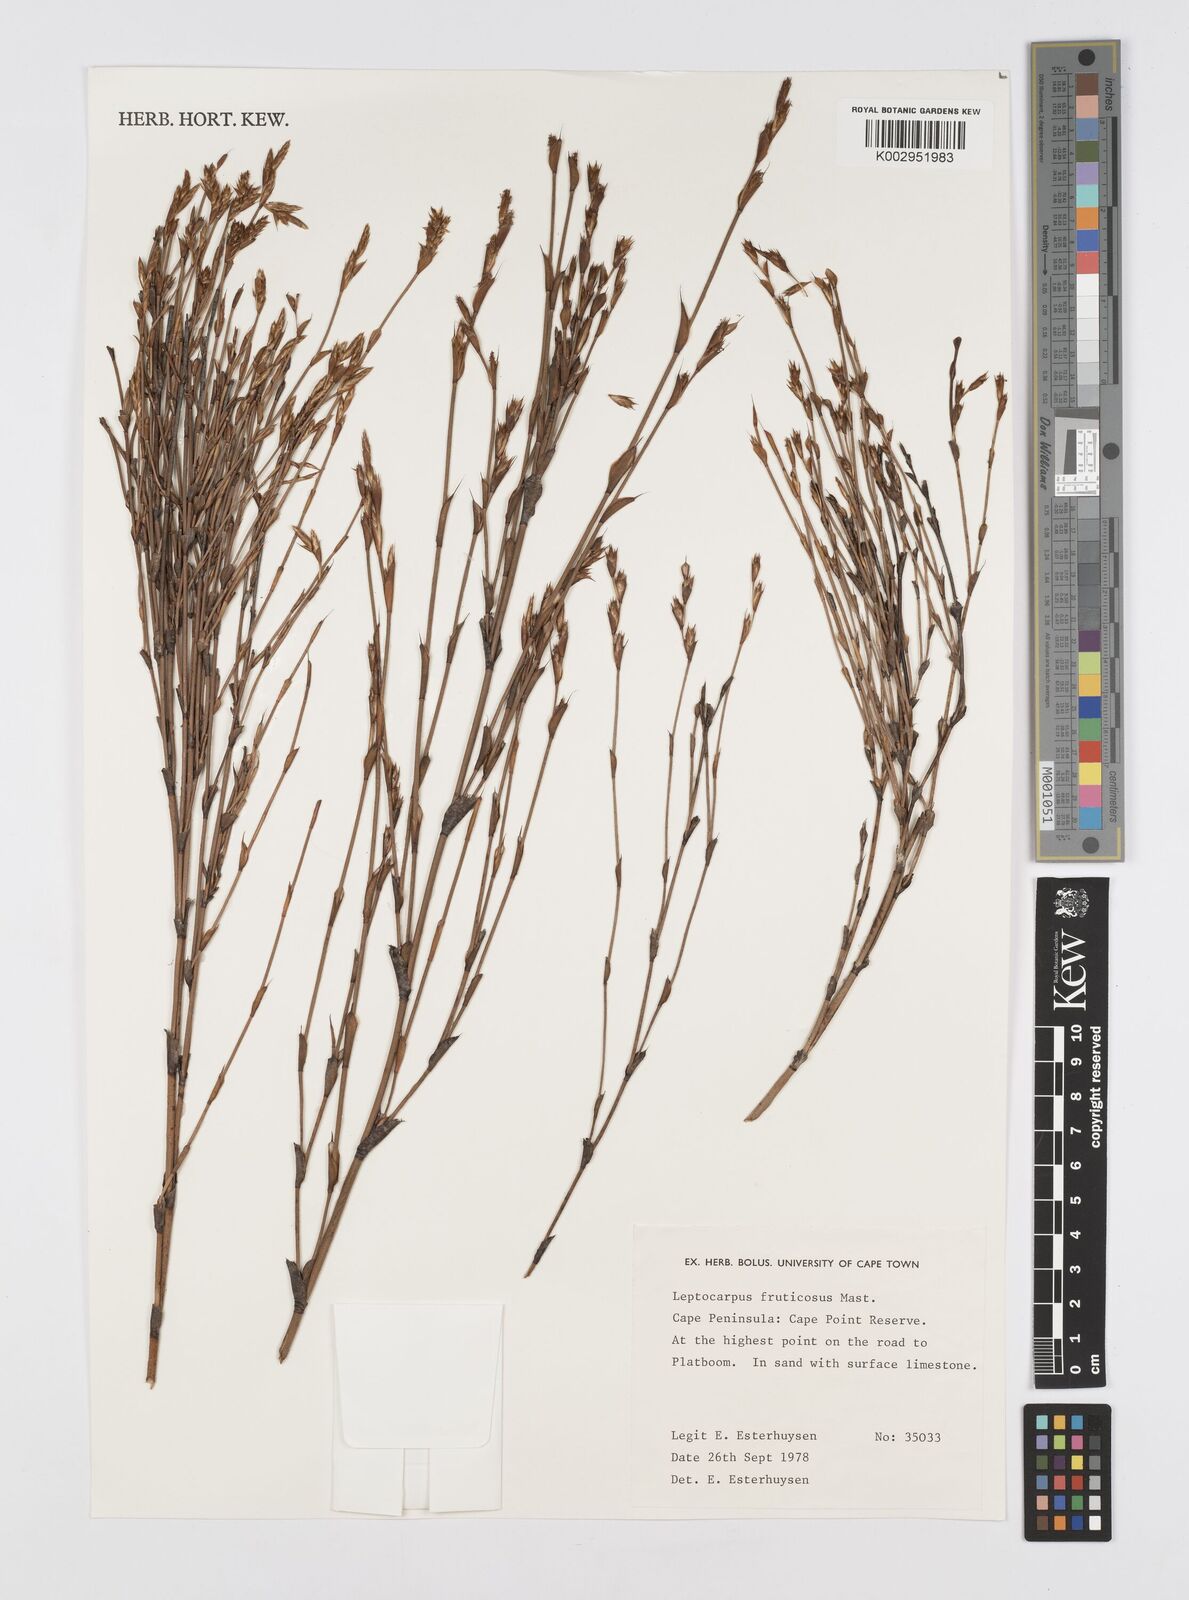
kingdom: Plantae
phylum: Tracheophyta
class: Liliopsida
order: Poales
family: Restionaceae
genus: Rhodocoma
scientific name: Rhodocoma fruticosa
